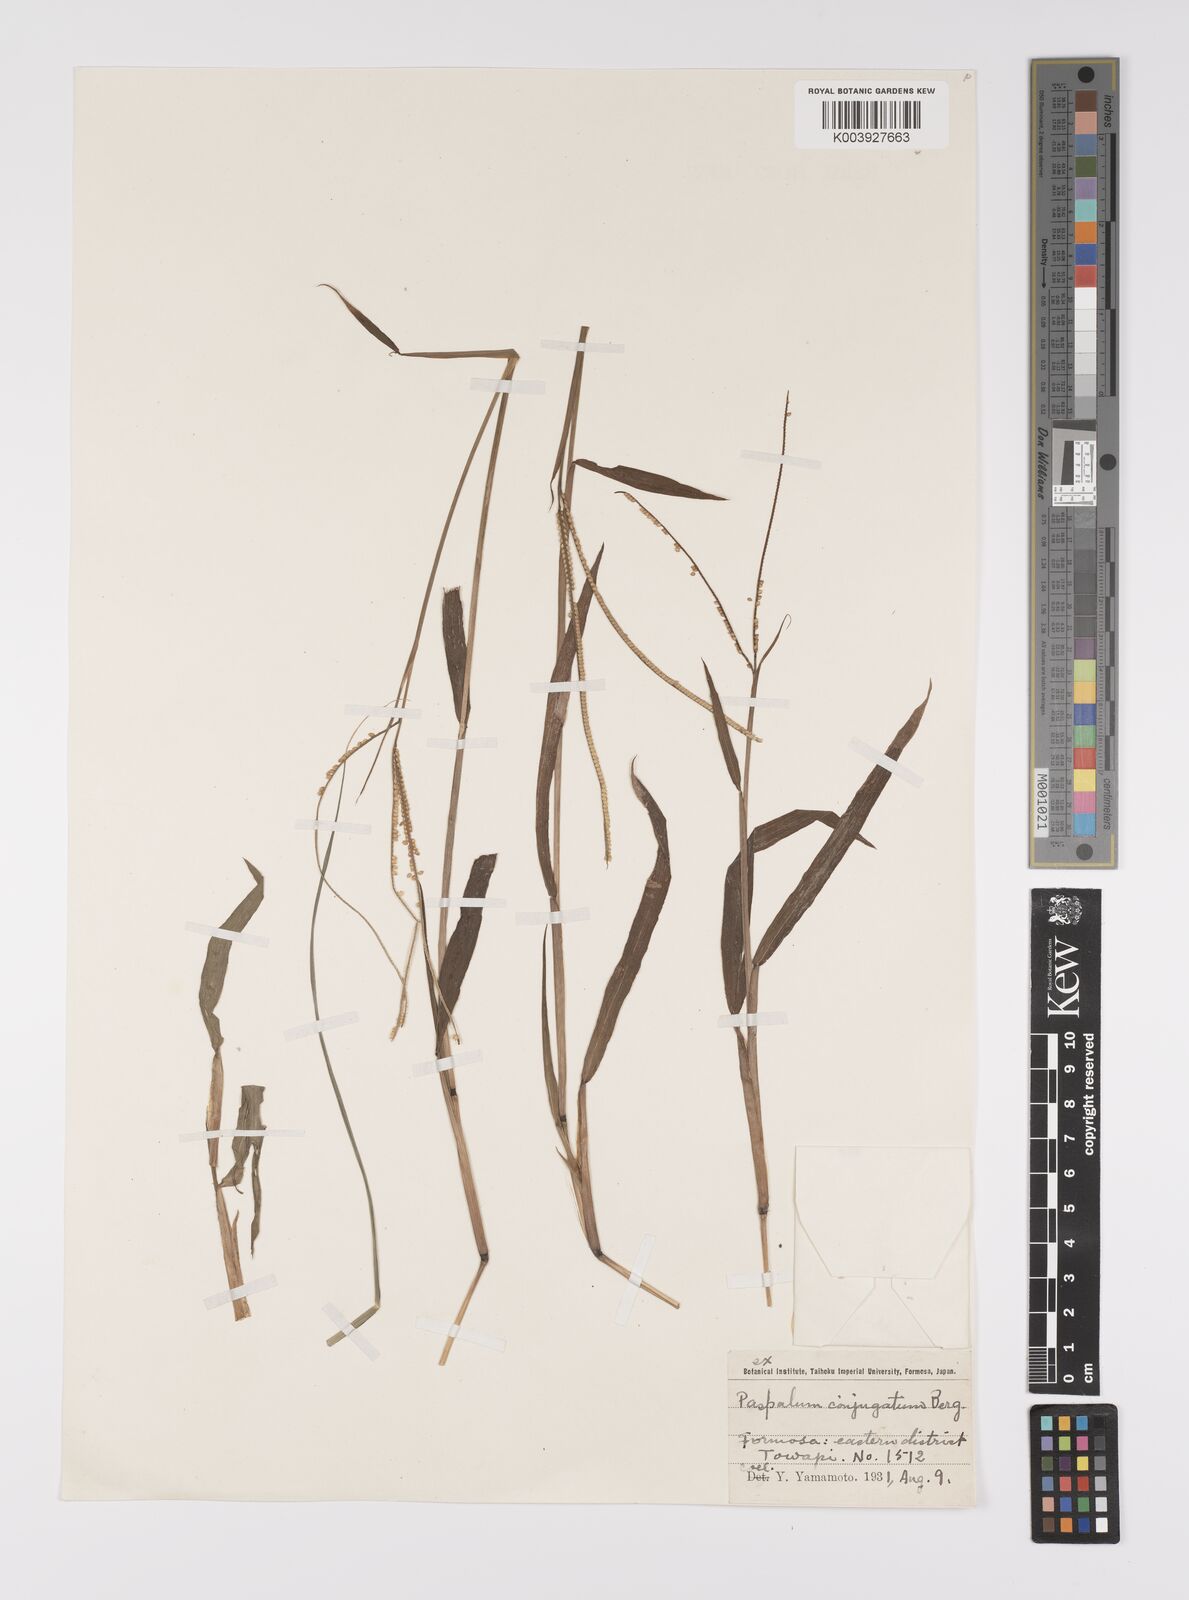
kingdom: Plantae
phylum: Tracheophyta
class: Liliopsida
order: Poales
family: Poaceae
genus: Paspalum
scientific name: Paspalum conjugatum
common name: Hilograss
